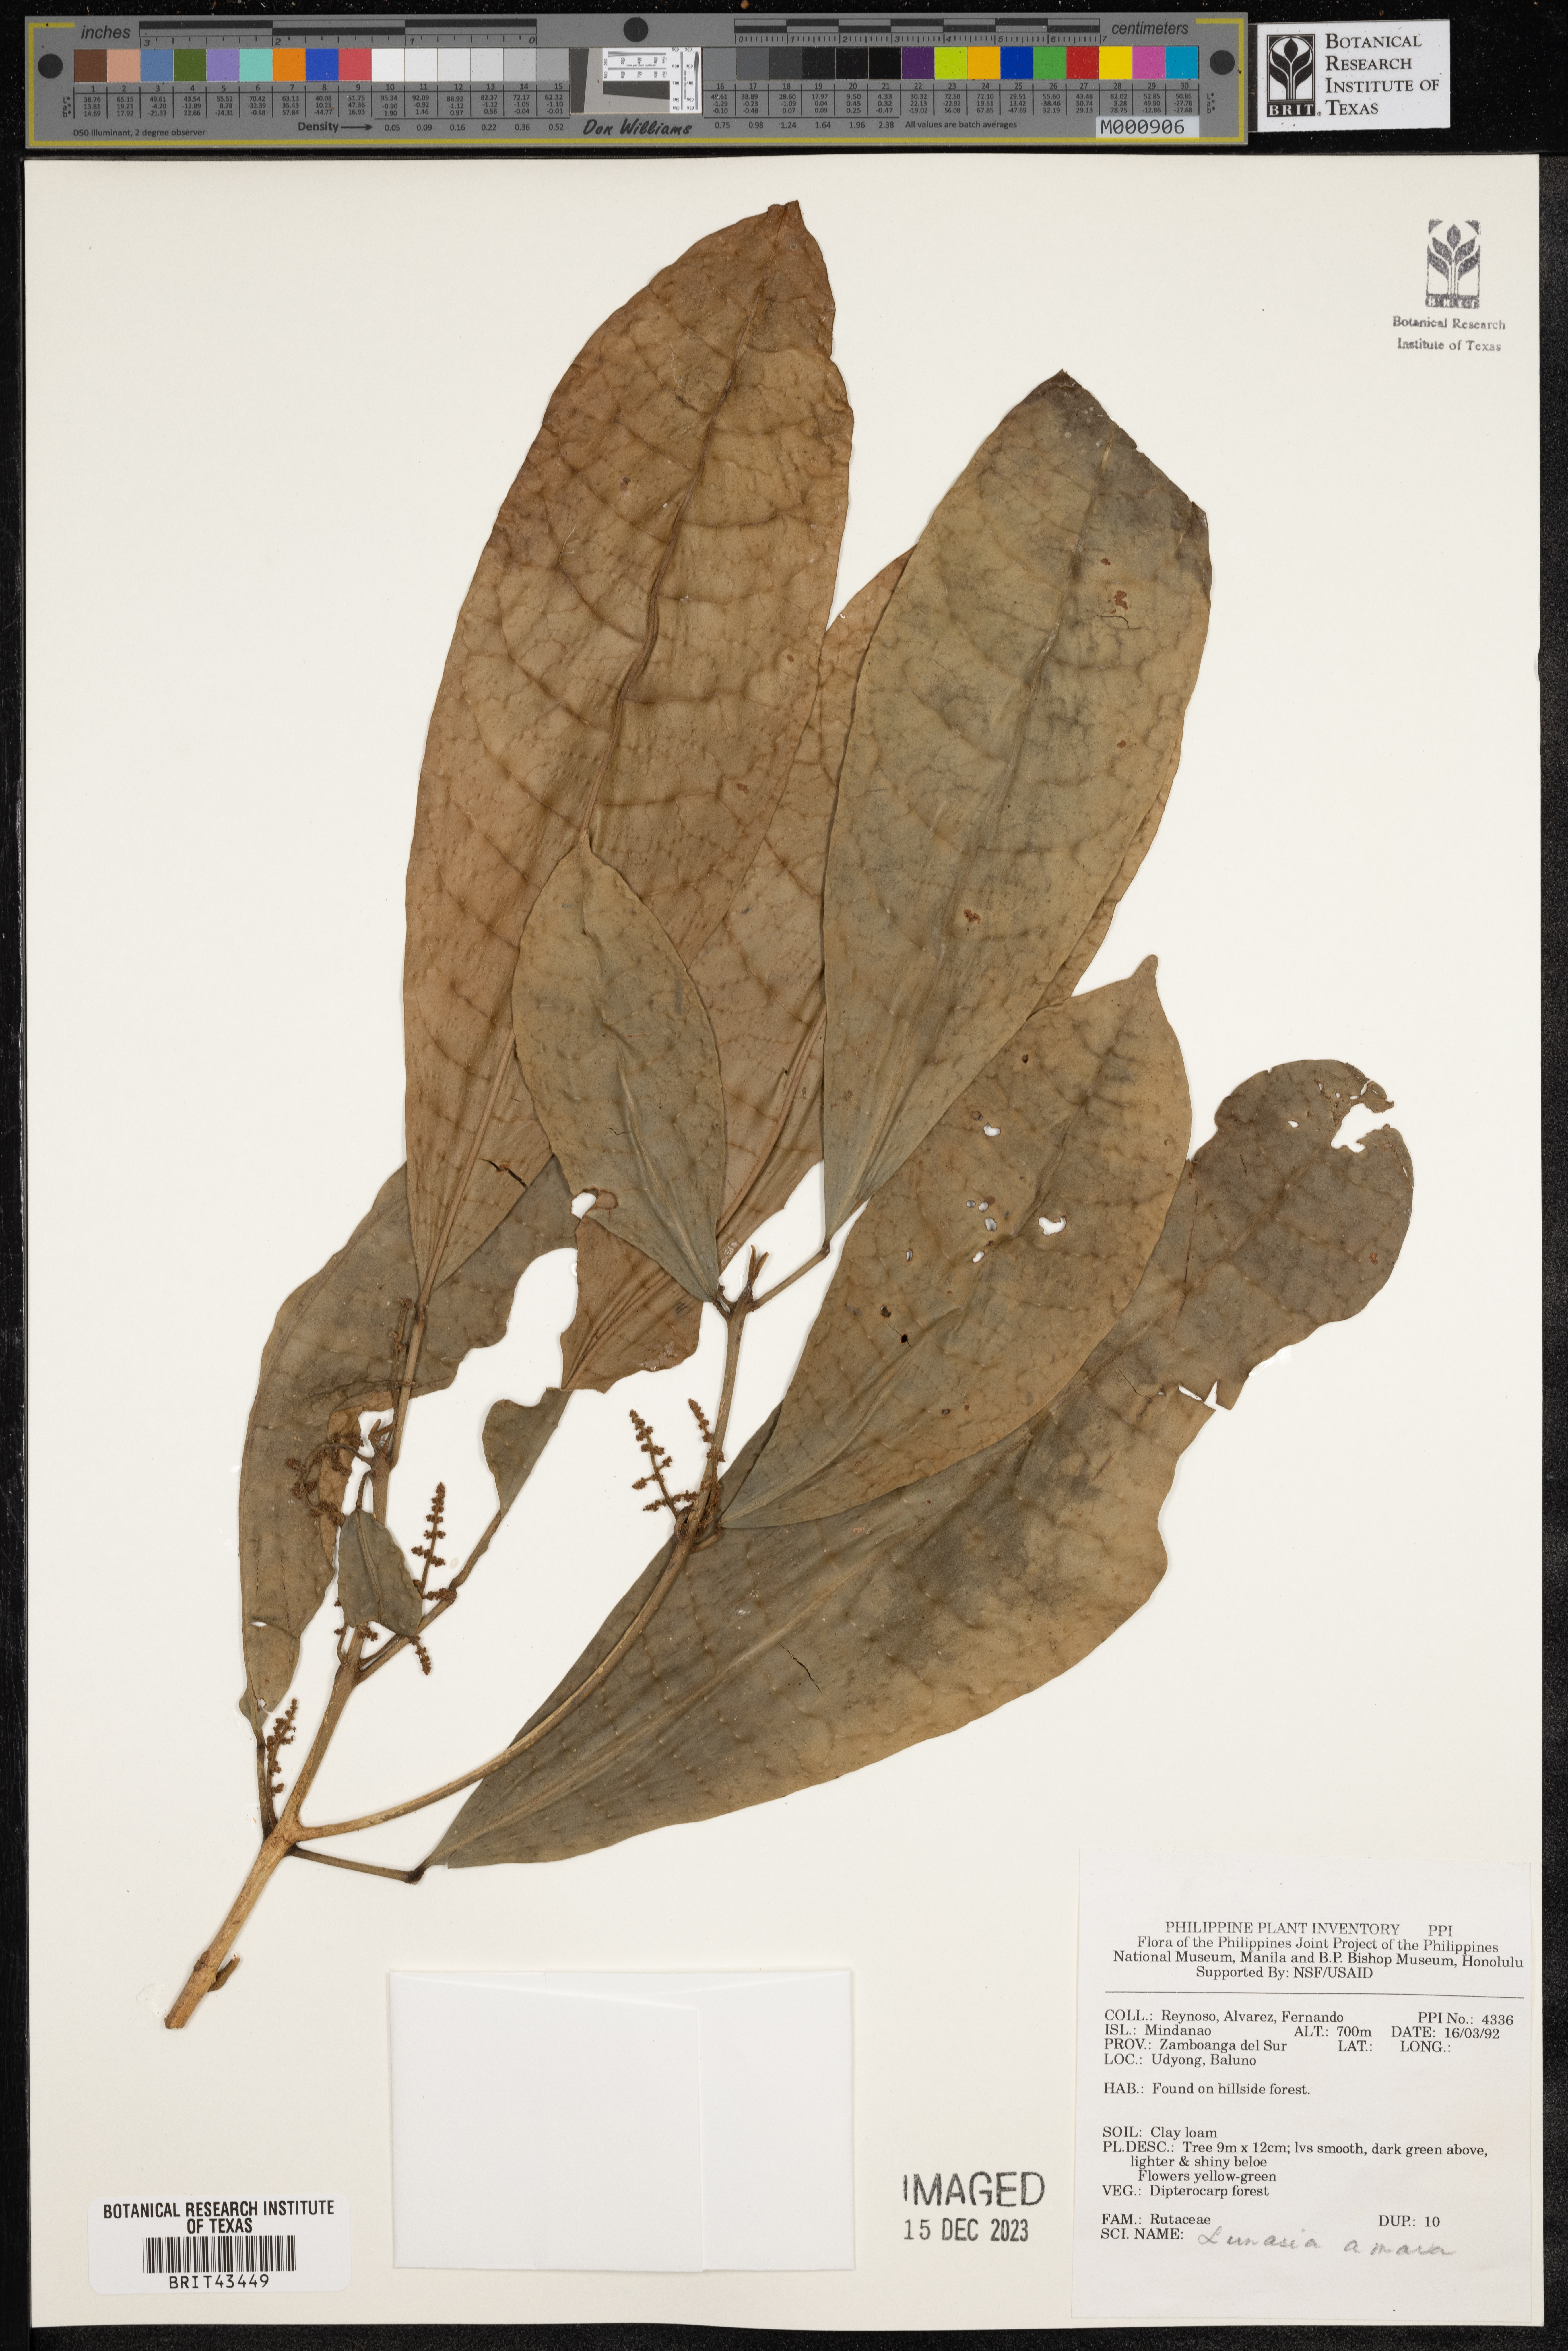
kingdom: Plantae
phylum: Tracheophyta
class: Magnoliopsida
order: Sapindales
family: Rutaceae
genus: Lunasia
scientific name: Lunasia amara
